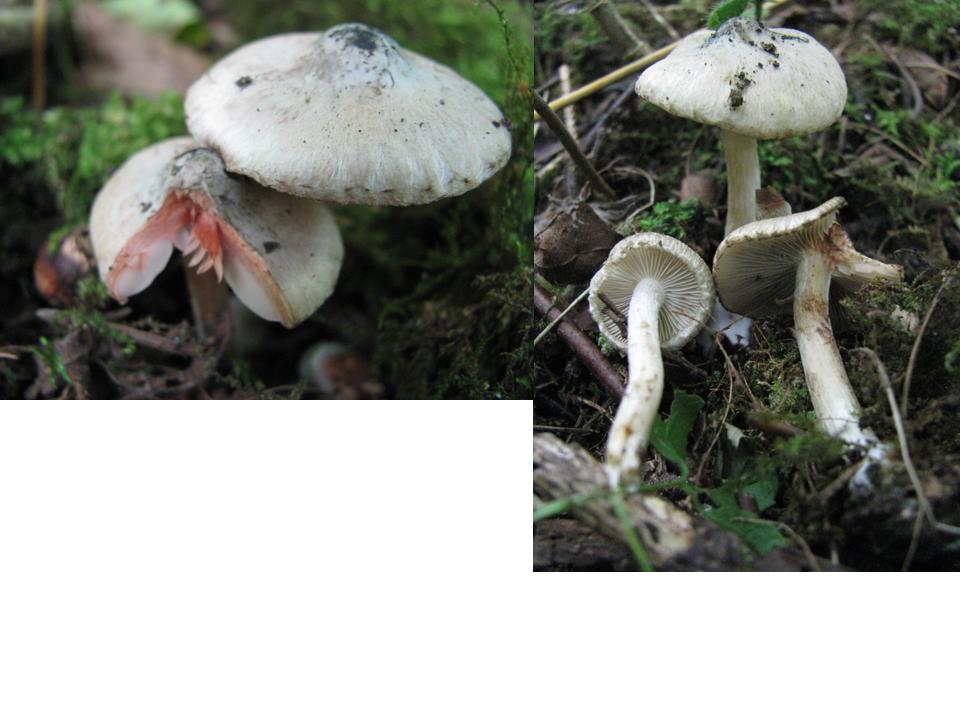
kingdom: Fungi
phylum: Basidiomycota
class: Agaricomycetes
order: Agaricales
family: Inocybaceae
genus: Inocybe
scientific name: Inocybe haemacta
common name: blågrøn trævlhat
